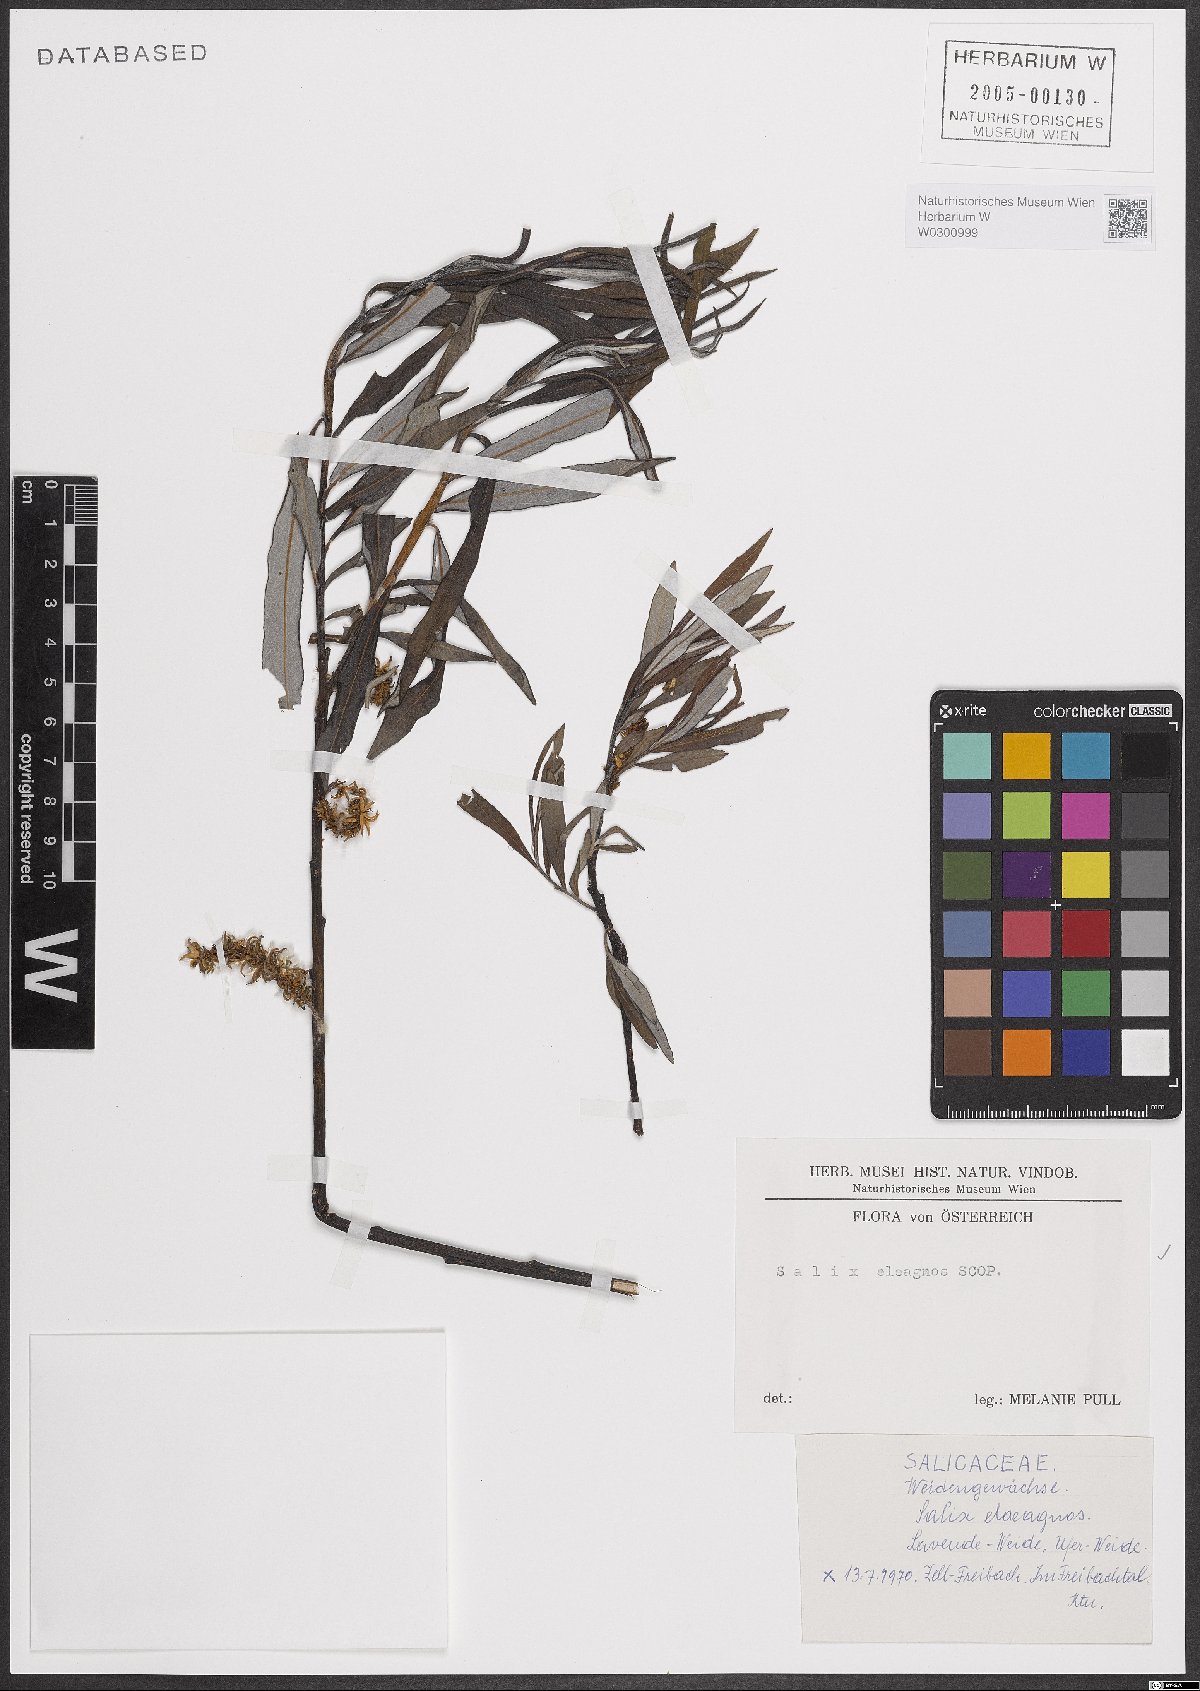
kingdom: Plantae
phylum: Tracheophyta
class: Magnoliopsida
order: Malpighiales
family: Salicaceae
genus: Salix
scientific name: Salix eleagnos
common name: Elaeagnus willow
